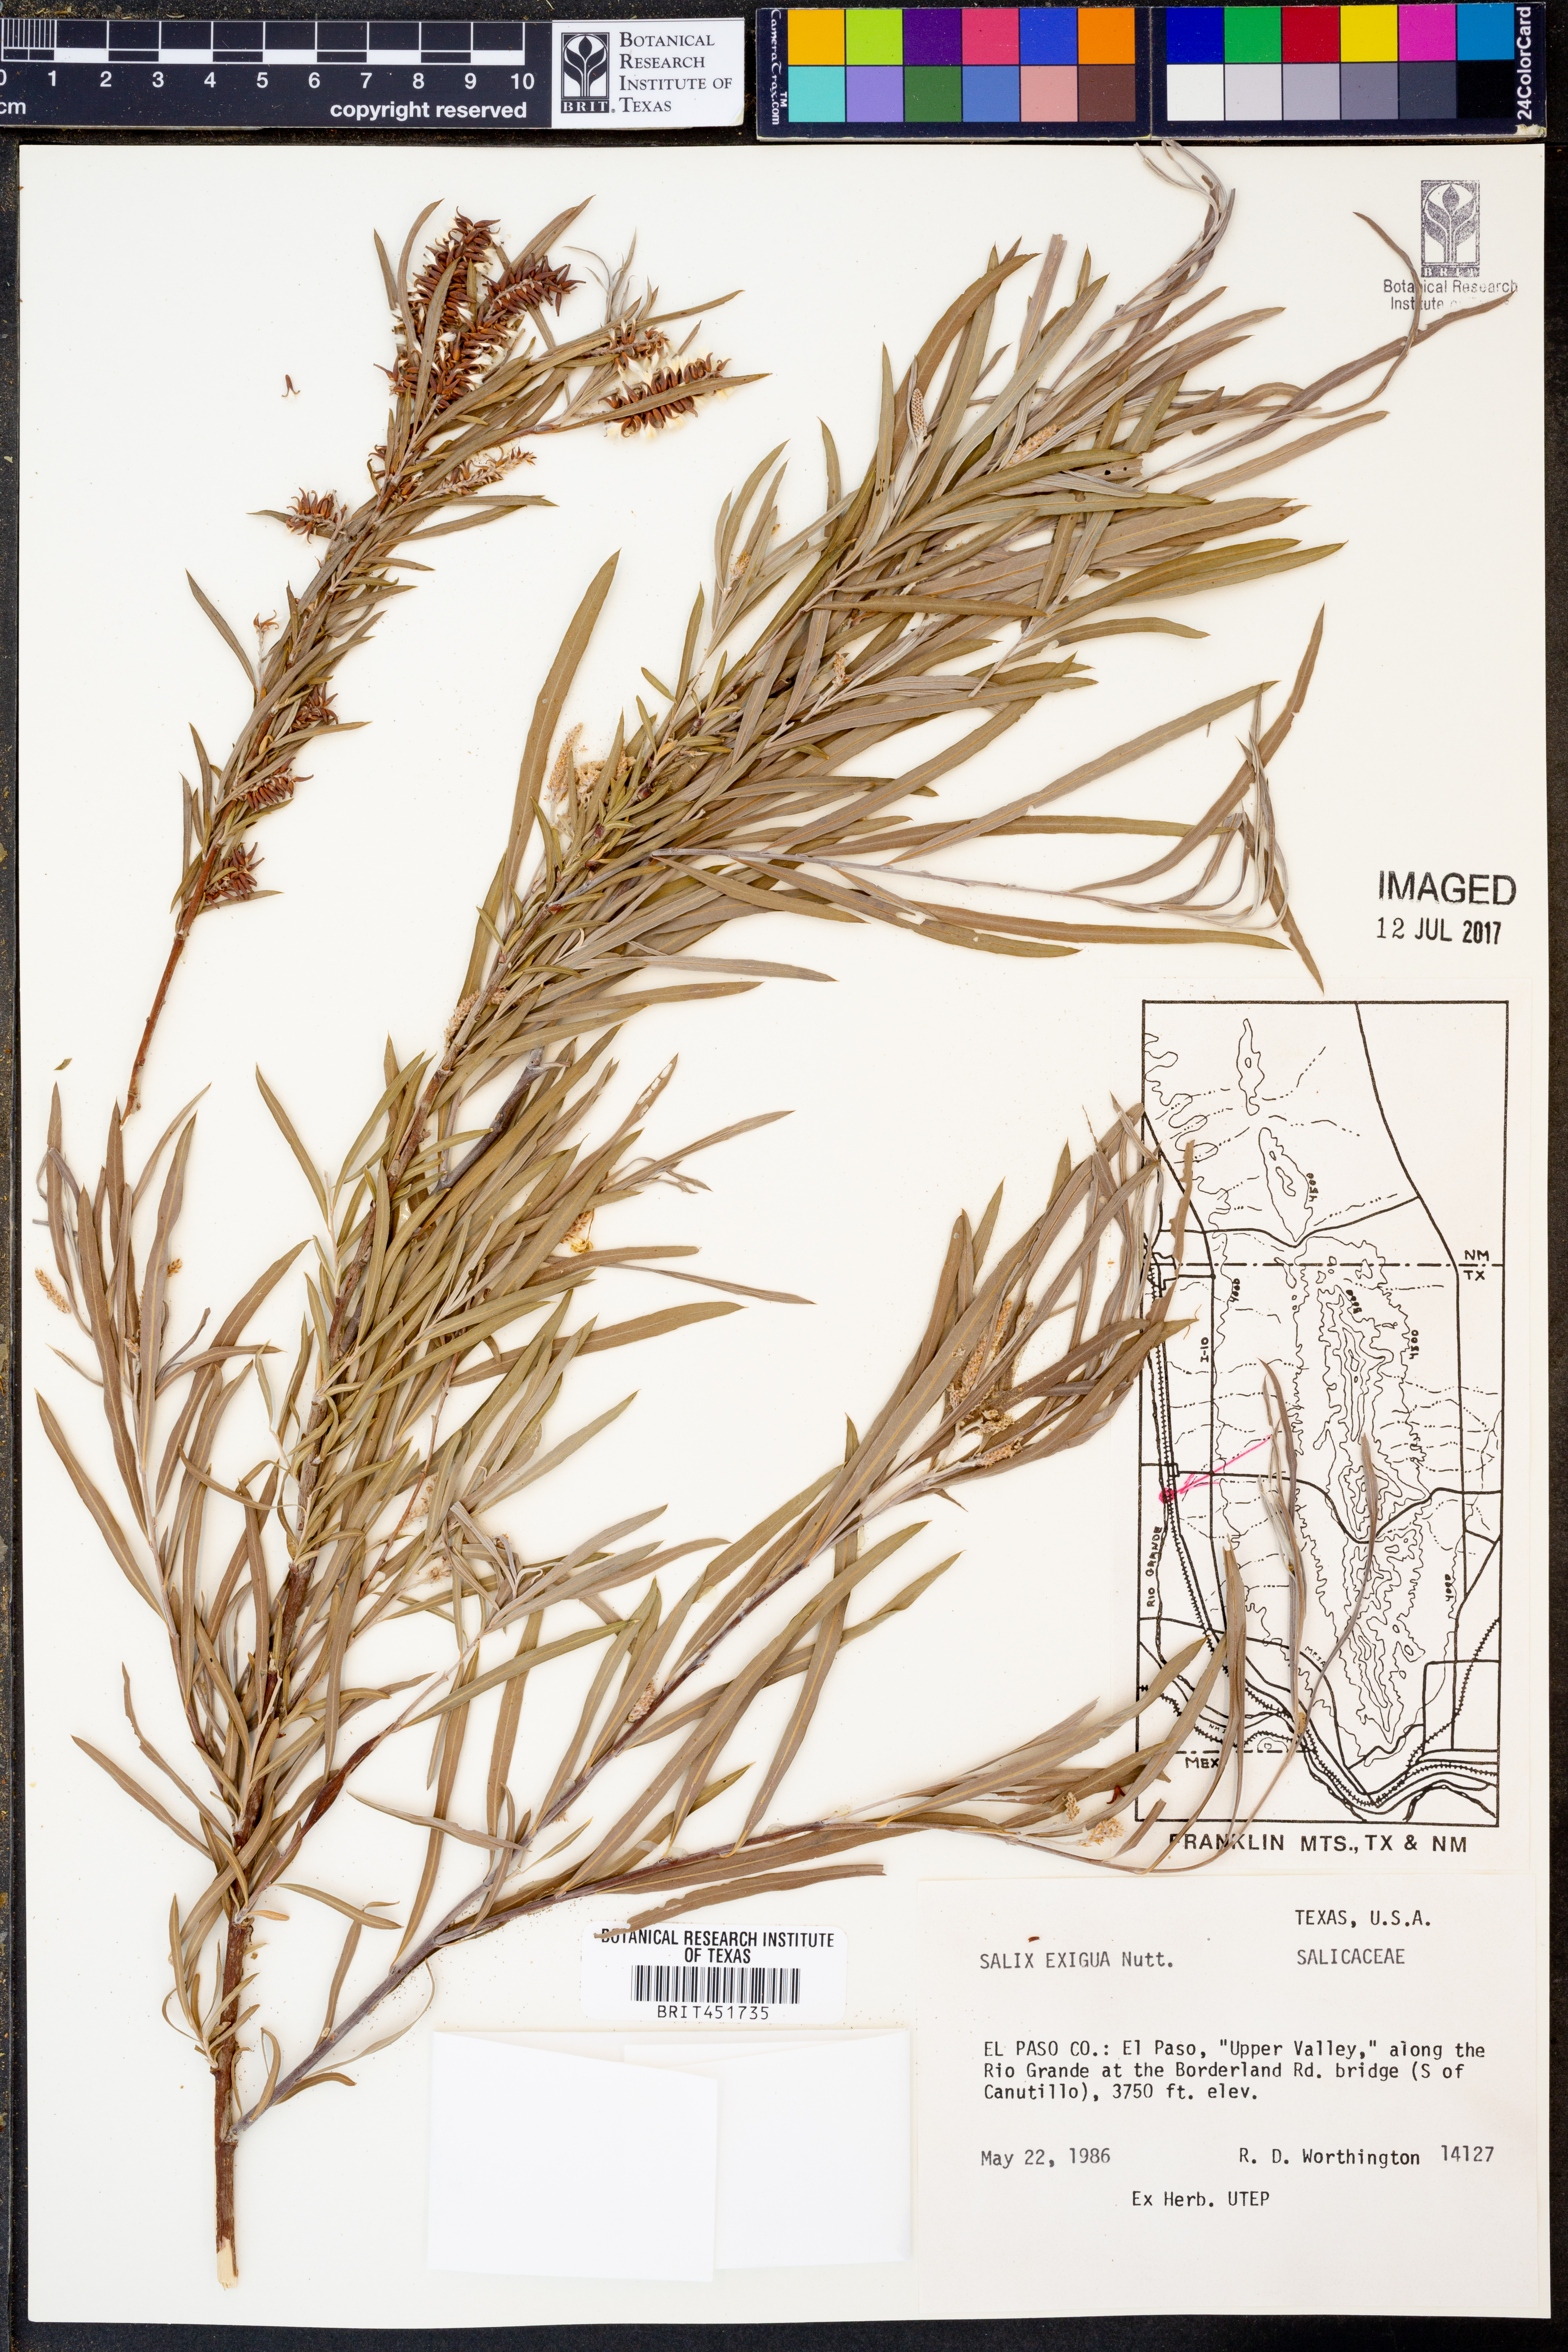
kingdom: Plantae
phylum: Tracheophyta
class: Magnoliopsida
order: Malpighiales
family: Salicaceae
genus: Salix
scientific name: Salix exigua
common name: Coyote willow
